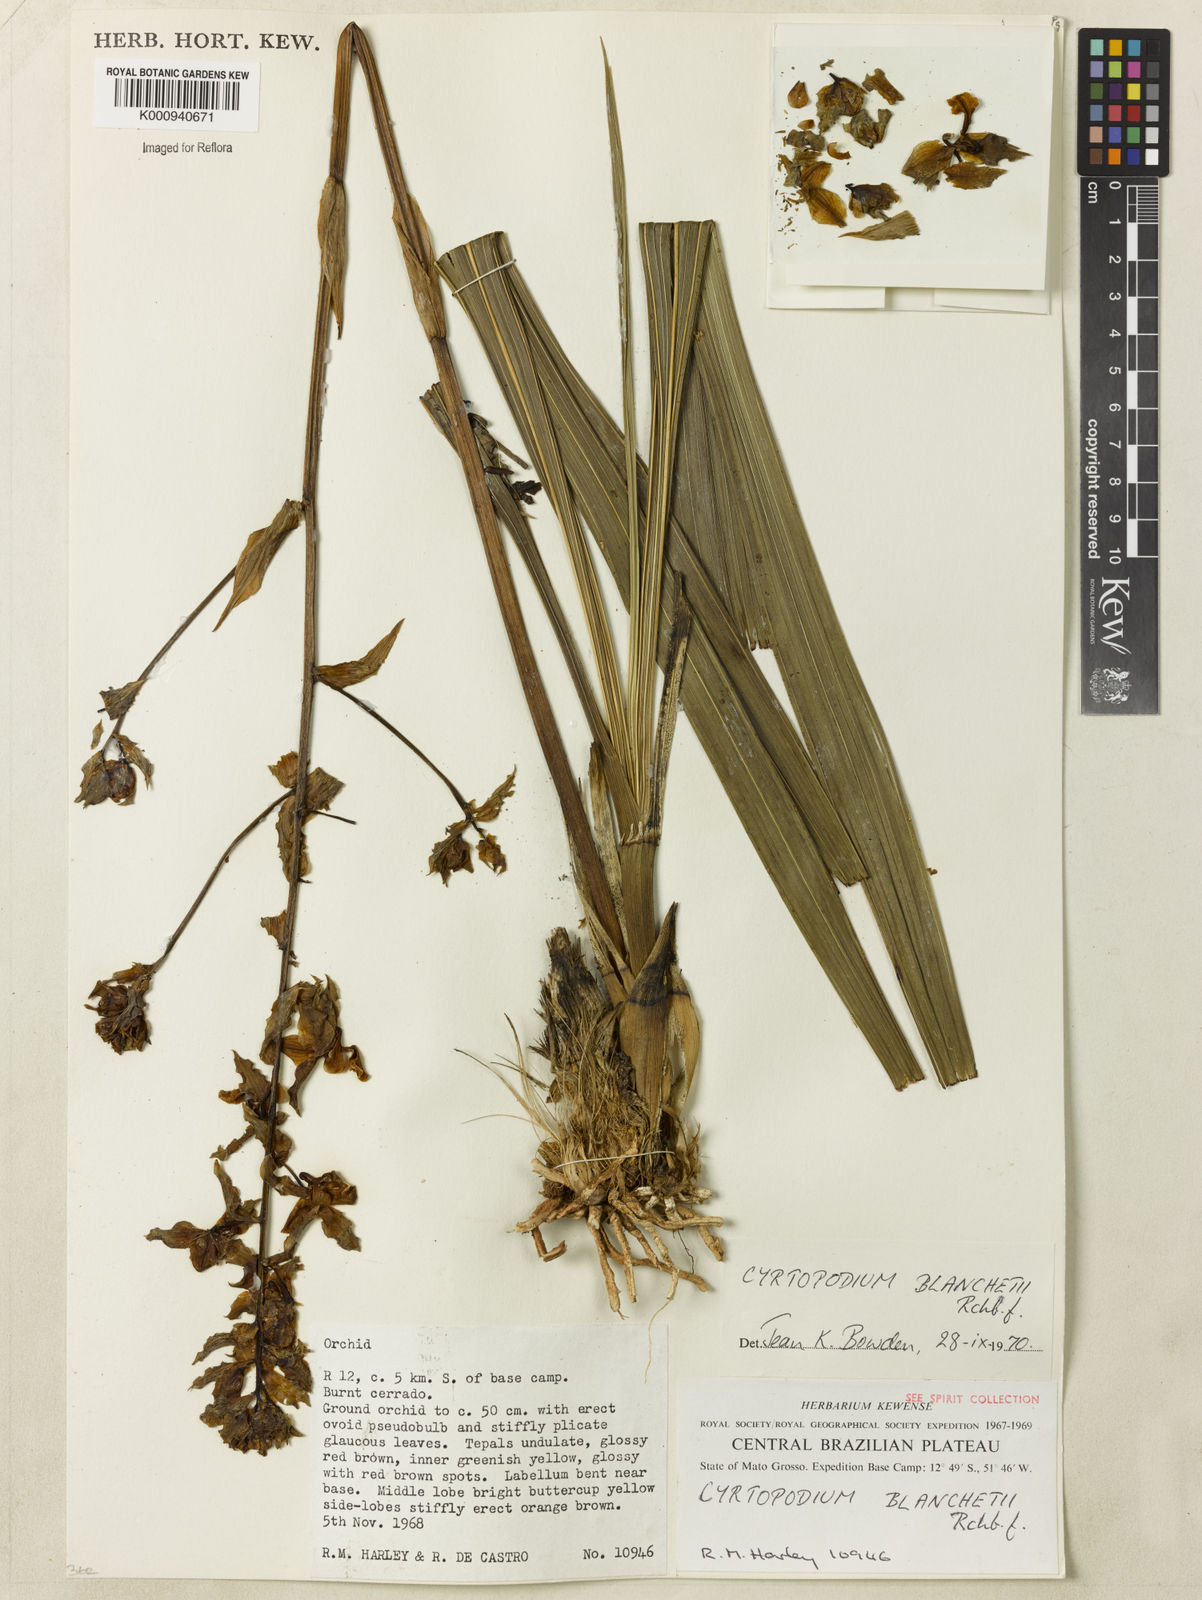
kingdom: Plantae
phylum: Tracheophyta
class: Liliopsida
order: Asparagales
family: Orchidaceae
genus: Cyrtopodium
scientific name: Cyrtopodium blanchetii
